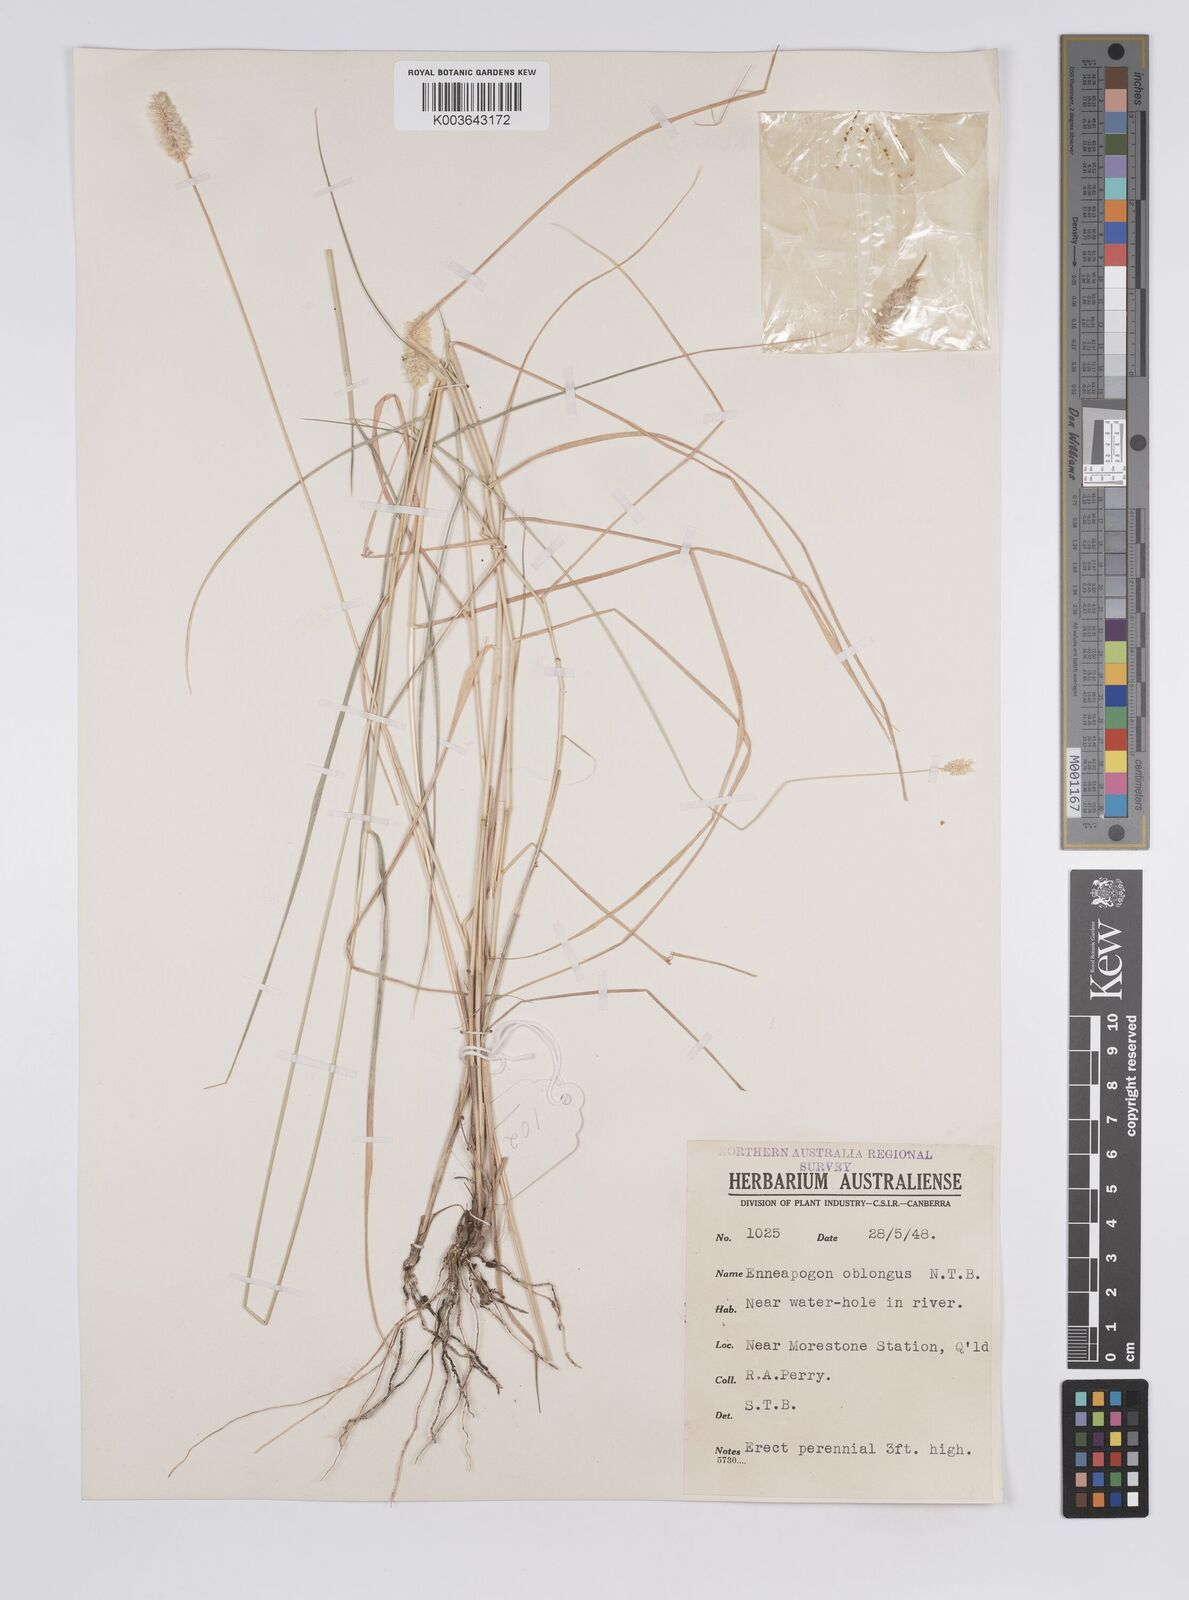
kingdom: Plantae
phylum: Tracheophyta
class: Liliopsida
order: Poales
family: Poaceae
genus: Enneapogon
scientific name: Enneapogon lindleyanus
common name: Conetop nineawn
